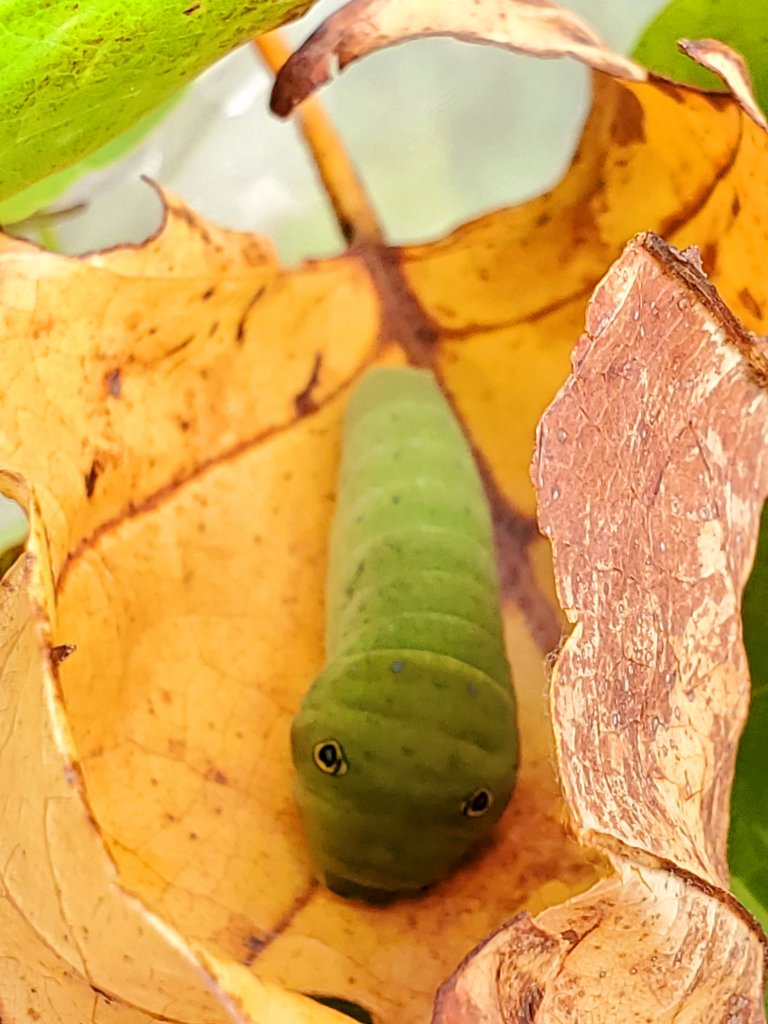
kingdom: Animalia
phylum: Arthropoda
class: Insecta
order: Lepidoptera
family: Papilionidae
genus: Pterourus
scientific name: Pterourus
